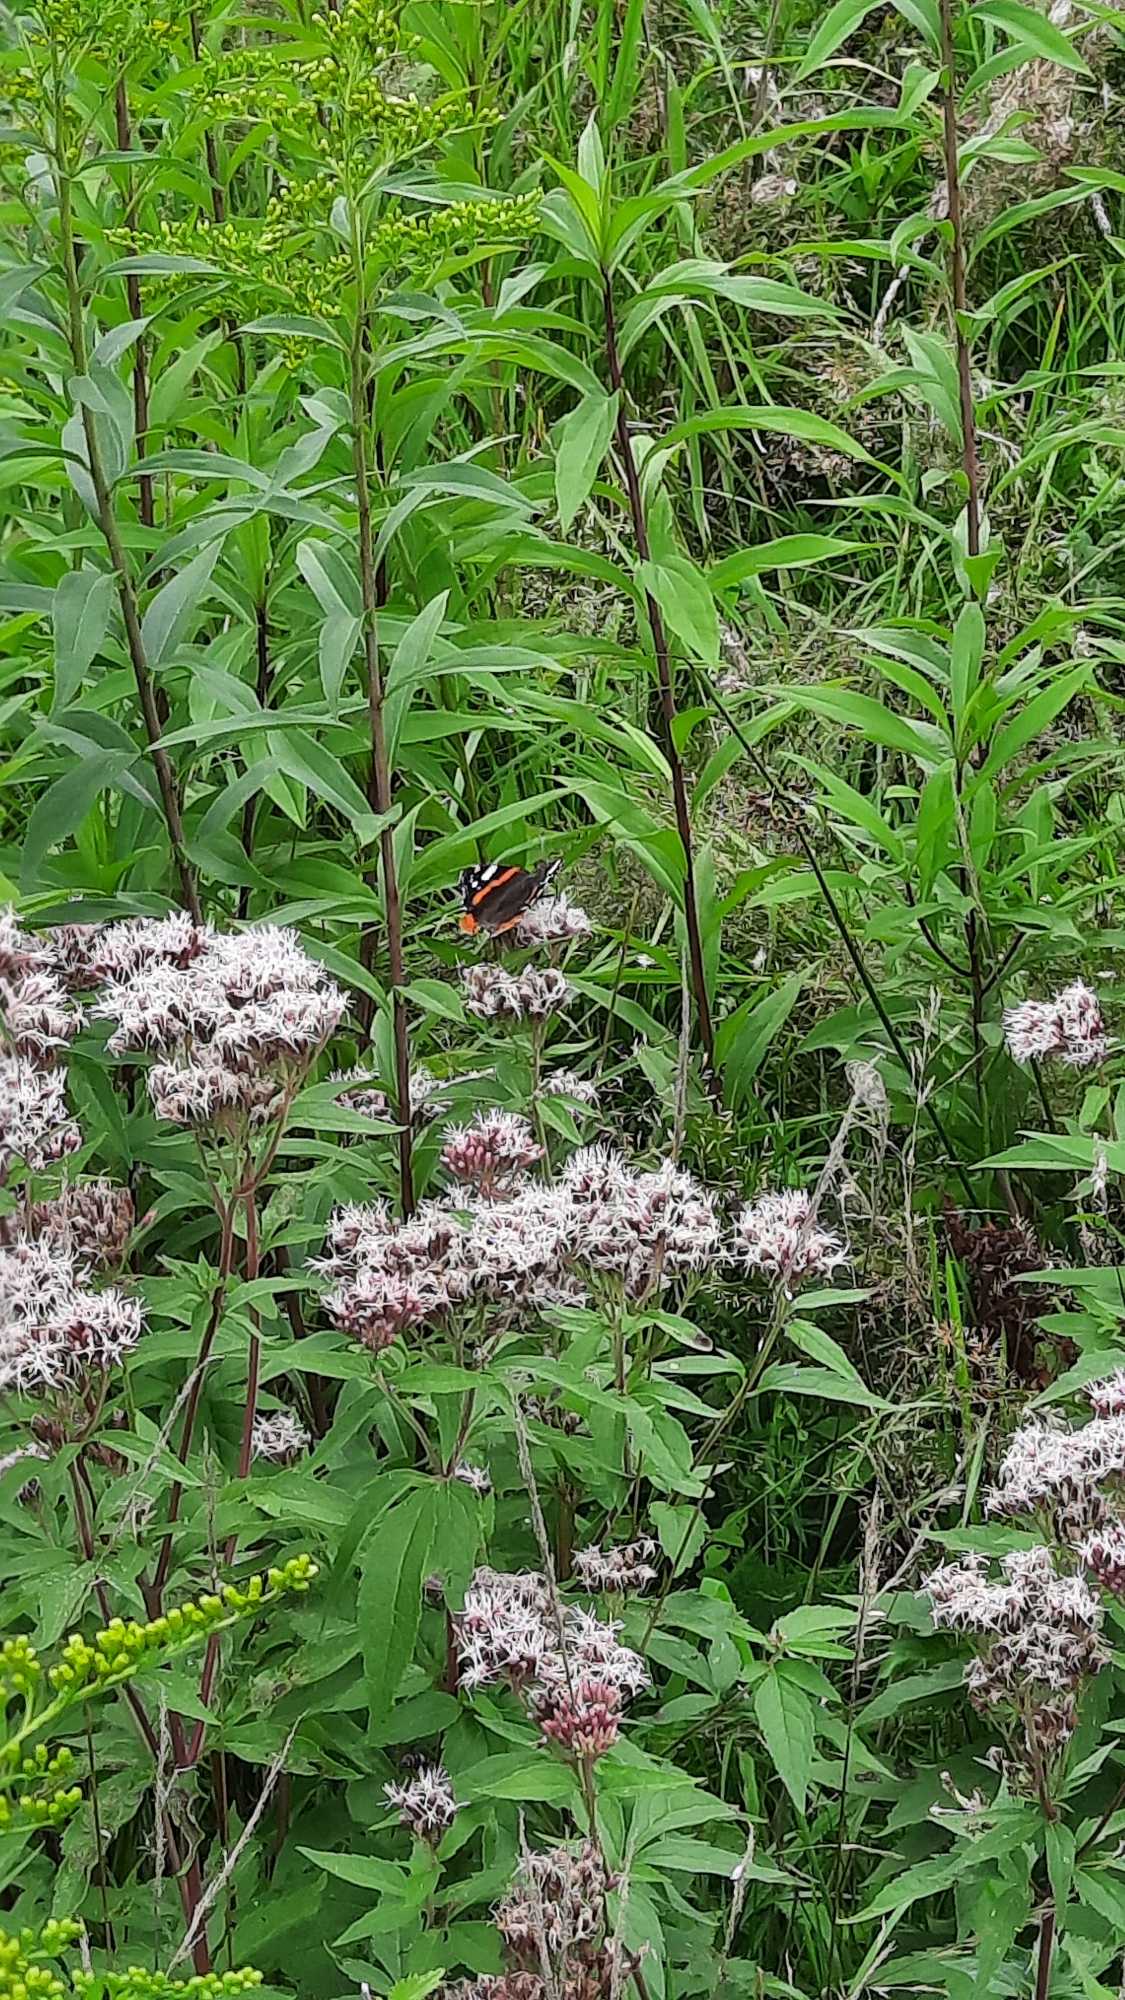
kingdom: Animalia
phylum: Arthropoda
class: Insecta
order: Lepidoptera
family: Nymphalidae
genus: Vanessa
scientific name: Vanessa atalanta
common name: Admiral
